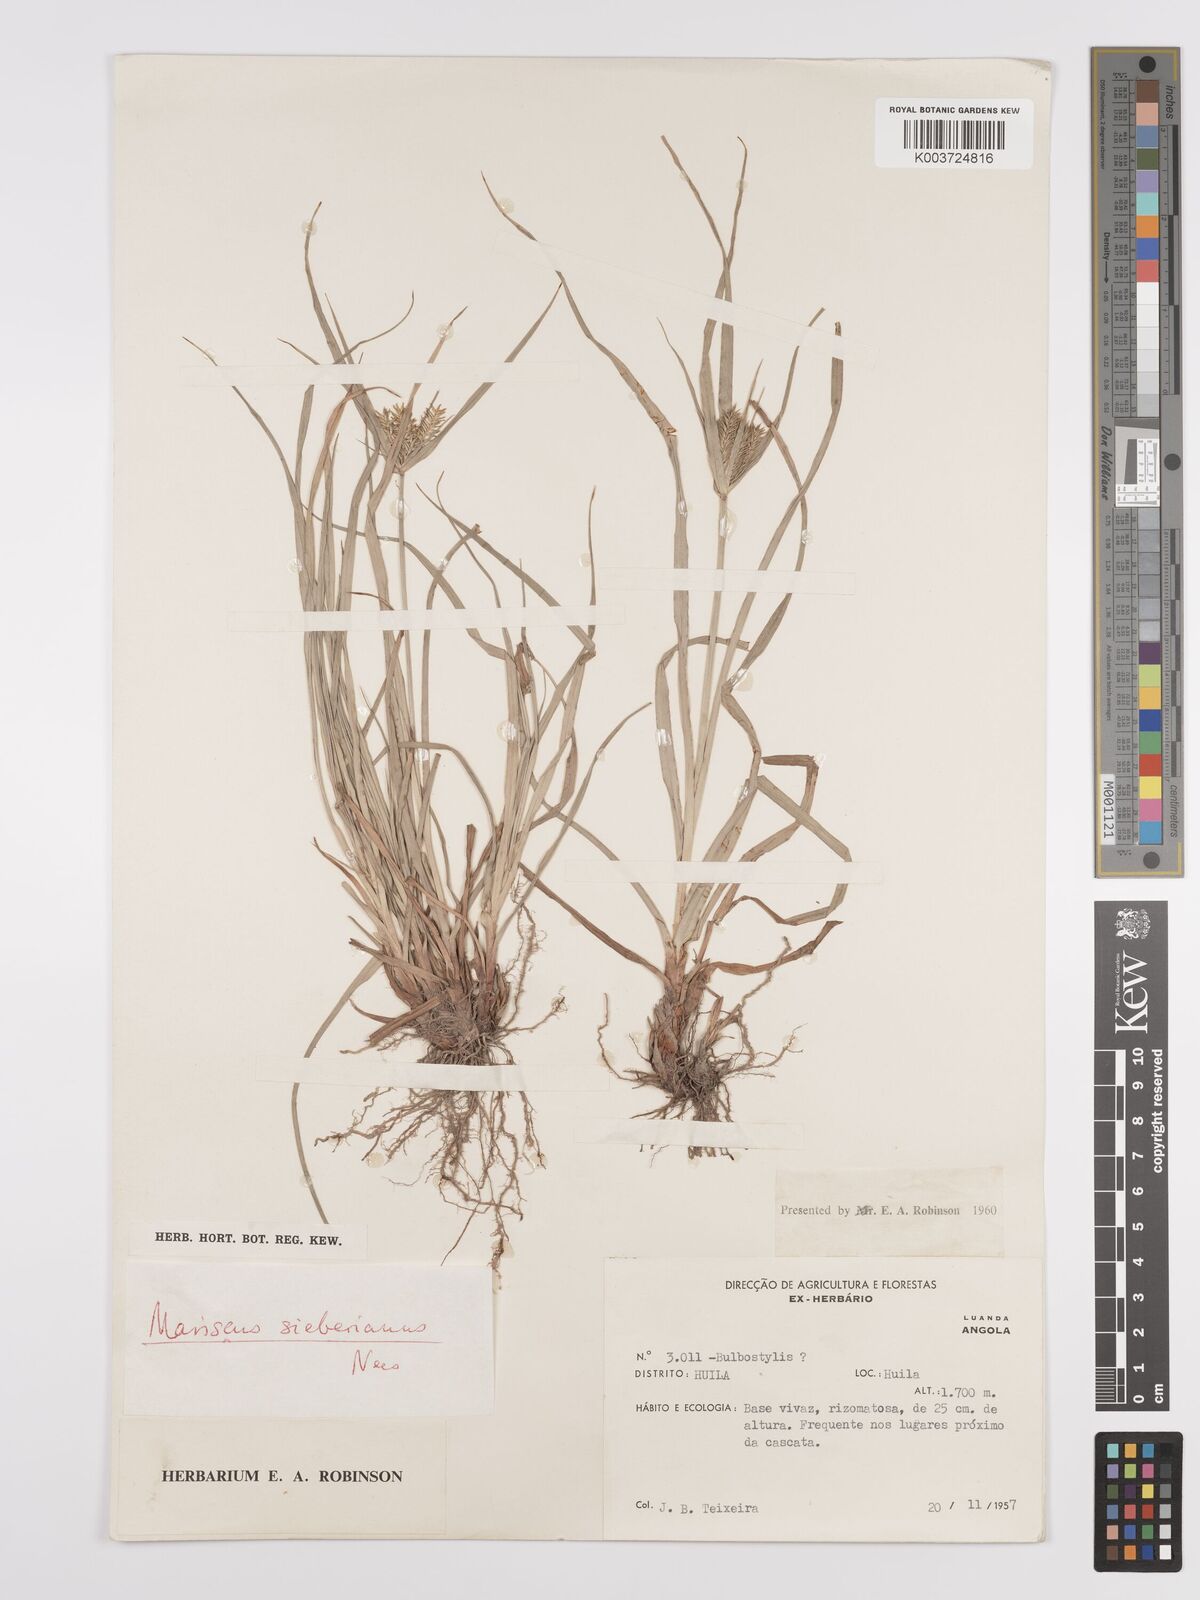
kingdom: Plantae
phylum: Tracheophyta
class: Liliopsida
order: Poales
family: Cyperaceae
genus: Cyperus
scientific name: Cyperus cyperoides
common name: Pacific island flat sedge
